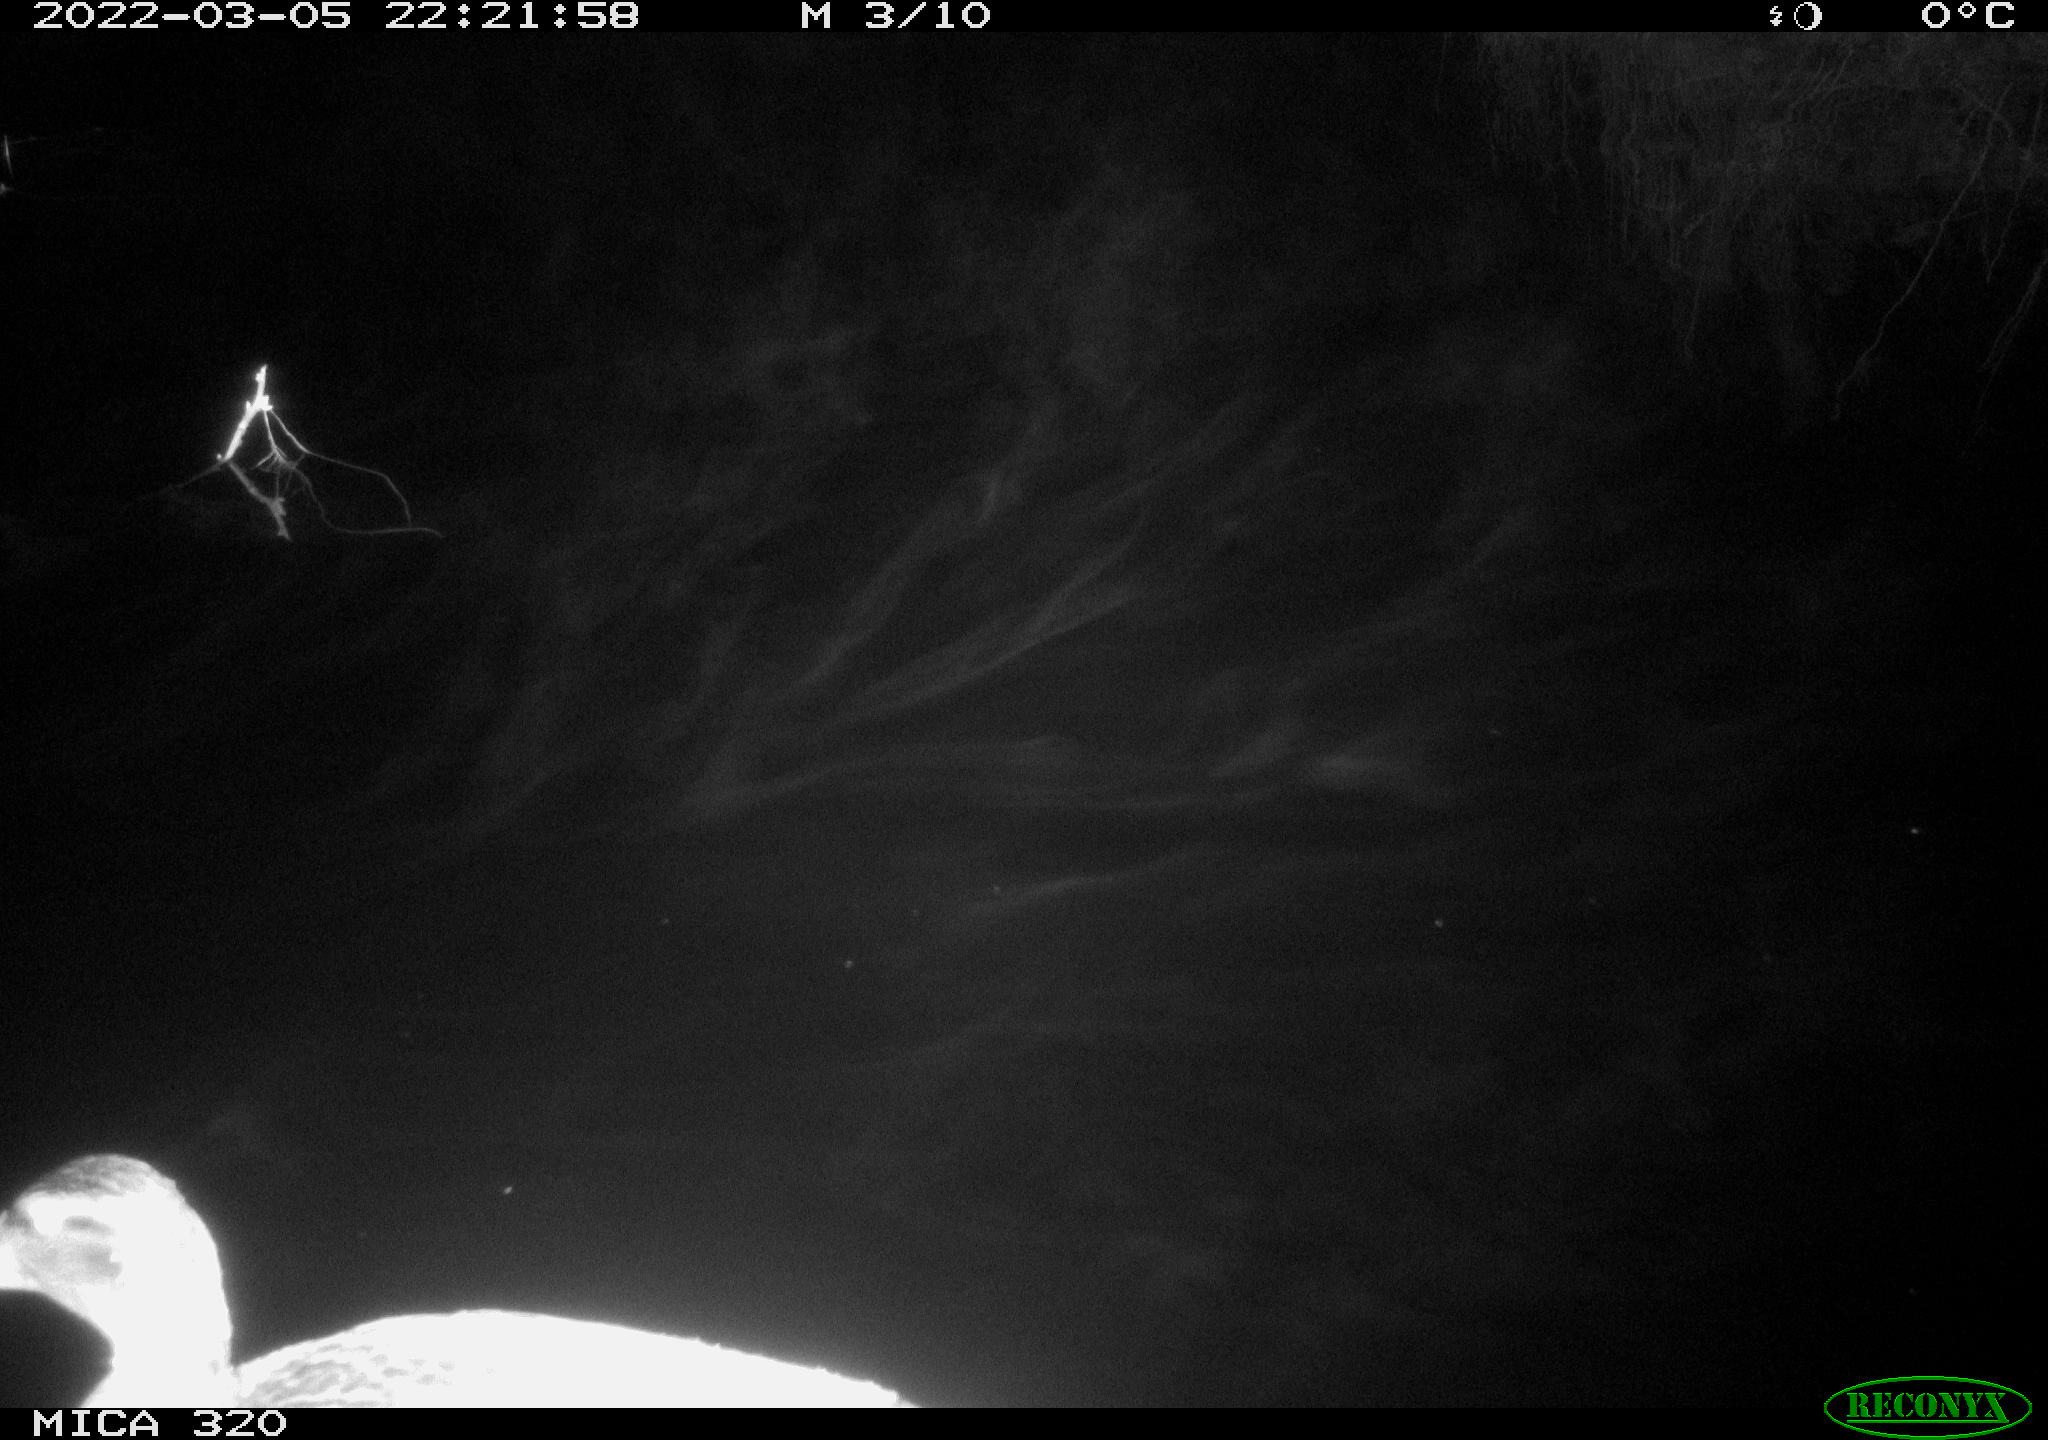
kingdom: Animalia
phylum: Chordata
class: Aves
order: Anseriformes
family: Anatidae
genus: Anas
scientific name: Anas platyrhynchos
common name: Mallard
